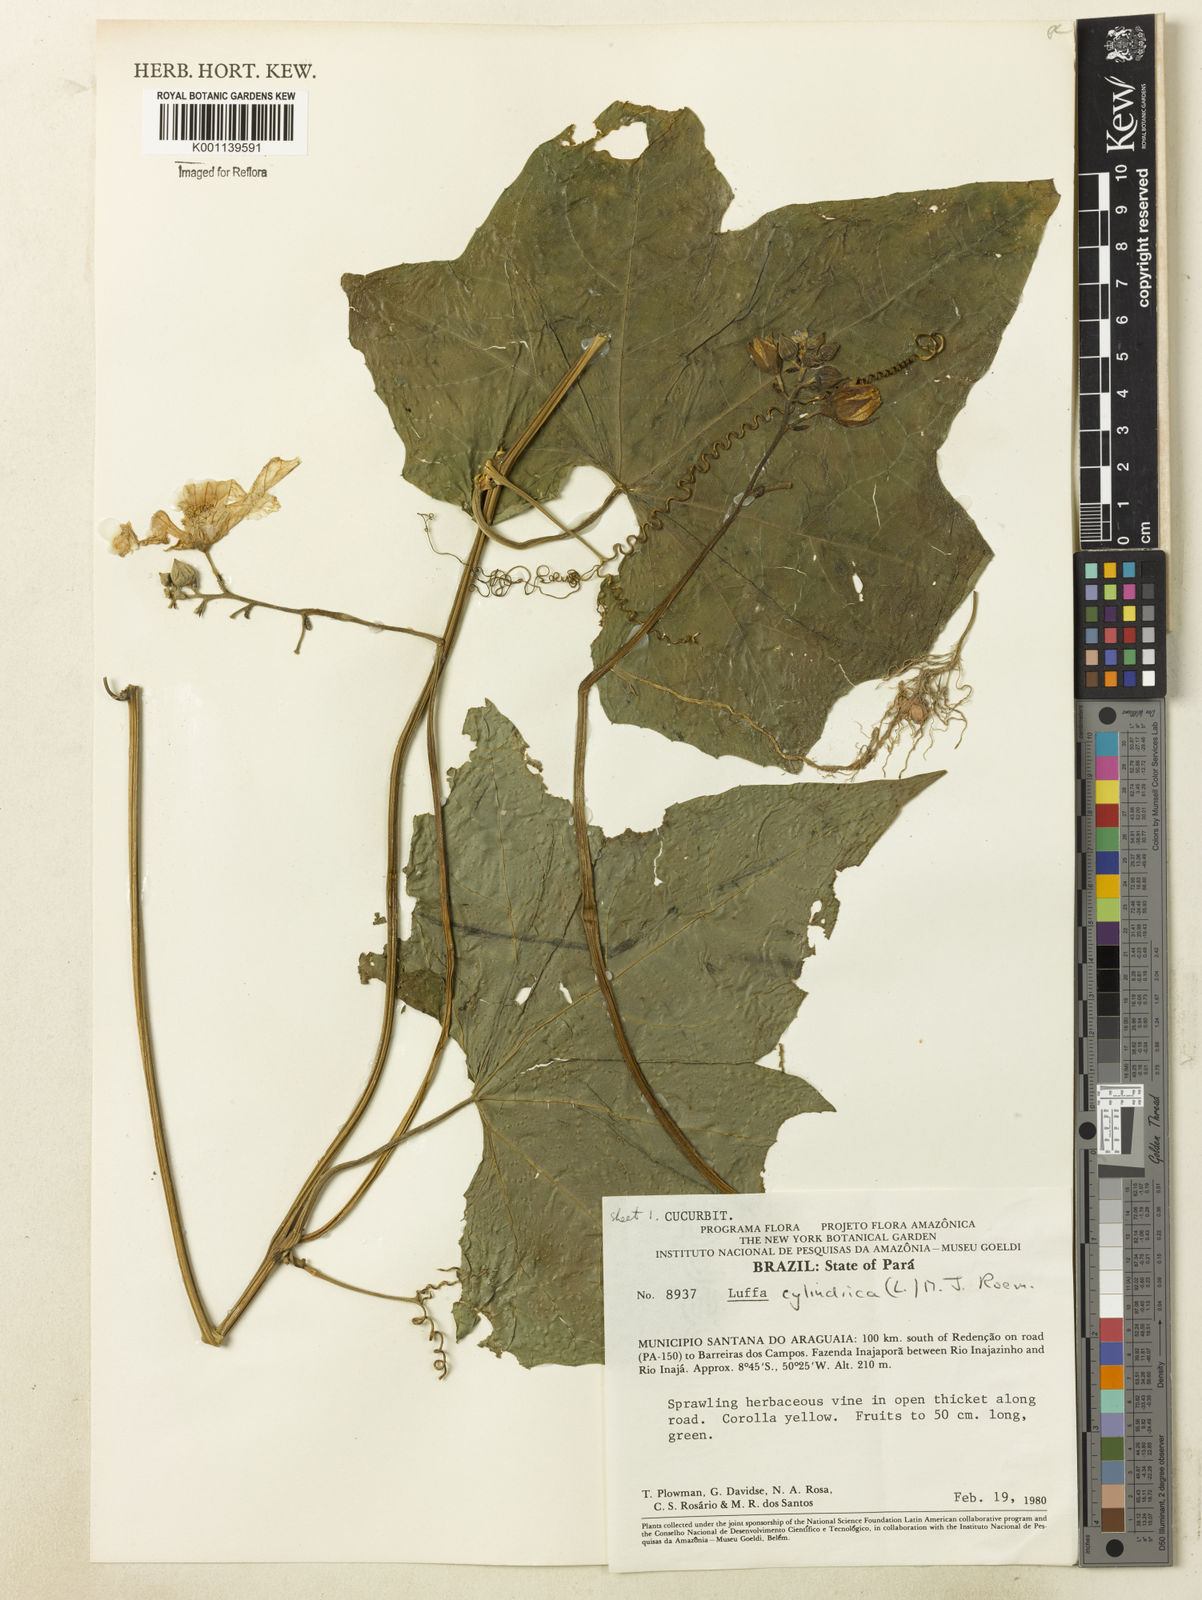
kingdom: Plantae
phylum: Tracheophyta
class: Magnoliopsida
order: Cucurbitales
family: Cucurbitaceae
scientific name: Cucurbitaceae
